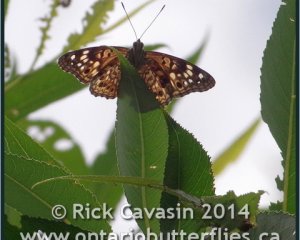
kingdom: Animalia
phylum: Arthropoda
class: Insecta
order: Lepidoptera
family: Nymphalidae
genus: Asterocampa
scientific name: Asterocampa celtis
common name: Hackberry Emperor
